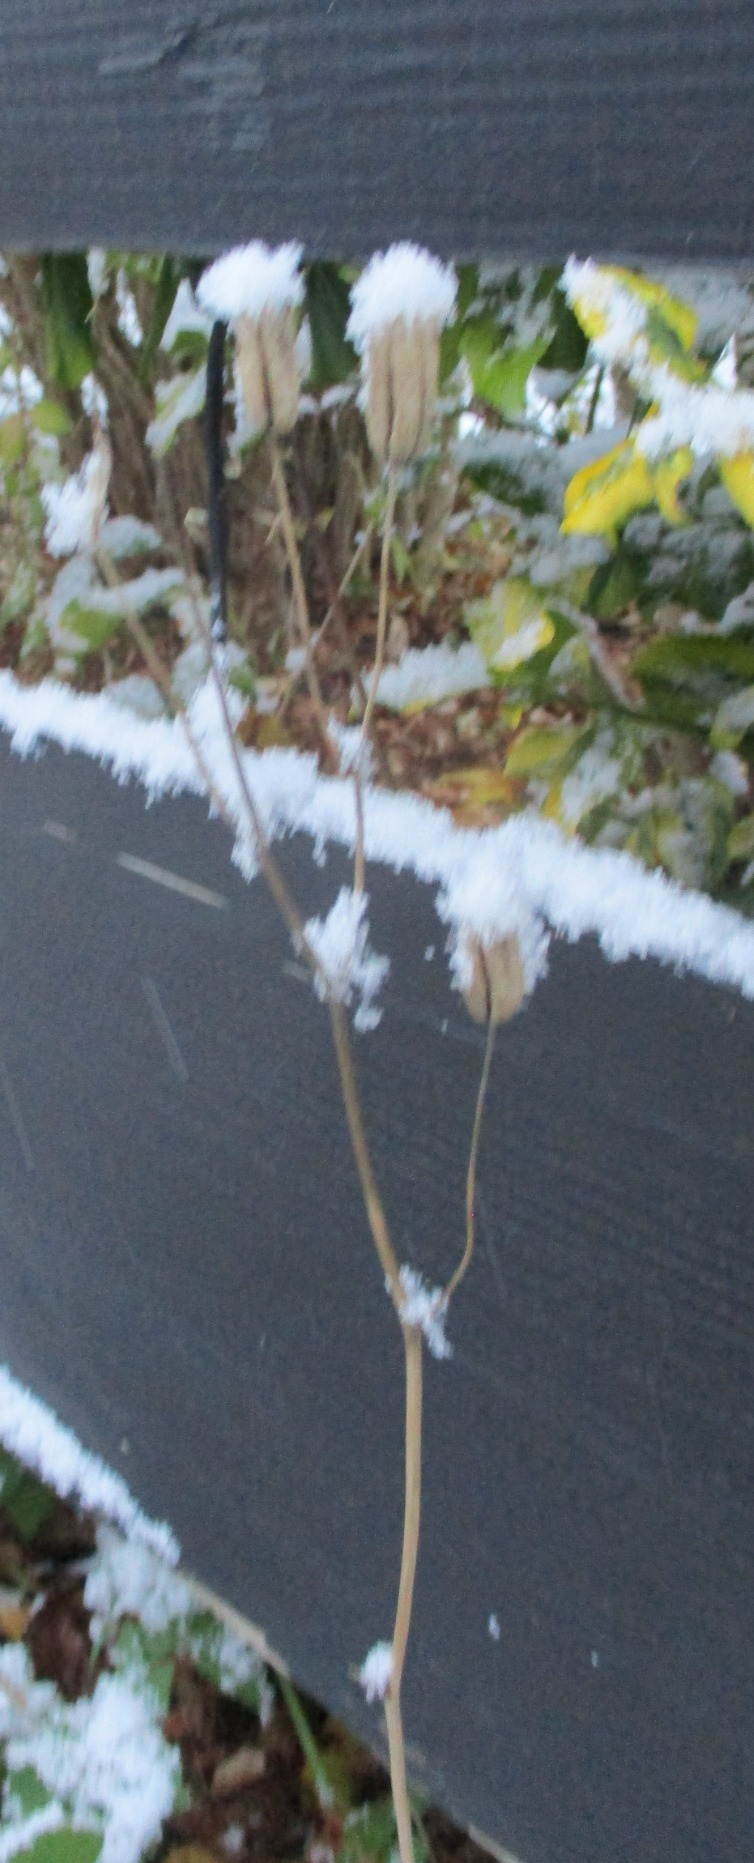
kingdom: Plantae
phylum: Tracheophyta
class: Magnoliopsida
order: Ranunculales
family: Ranunculaceae
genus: Aquilegia
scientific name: Aquilegia vulgaris
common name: Akeleje
